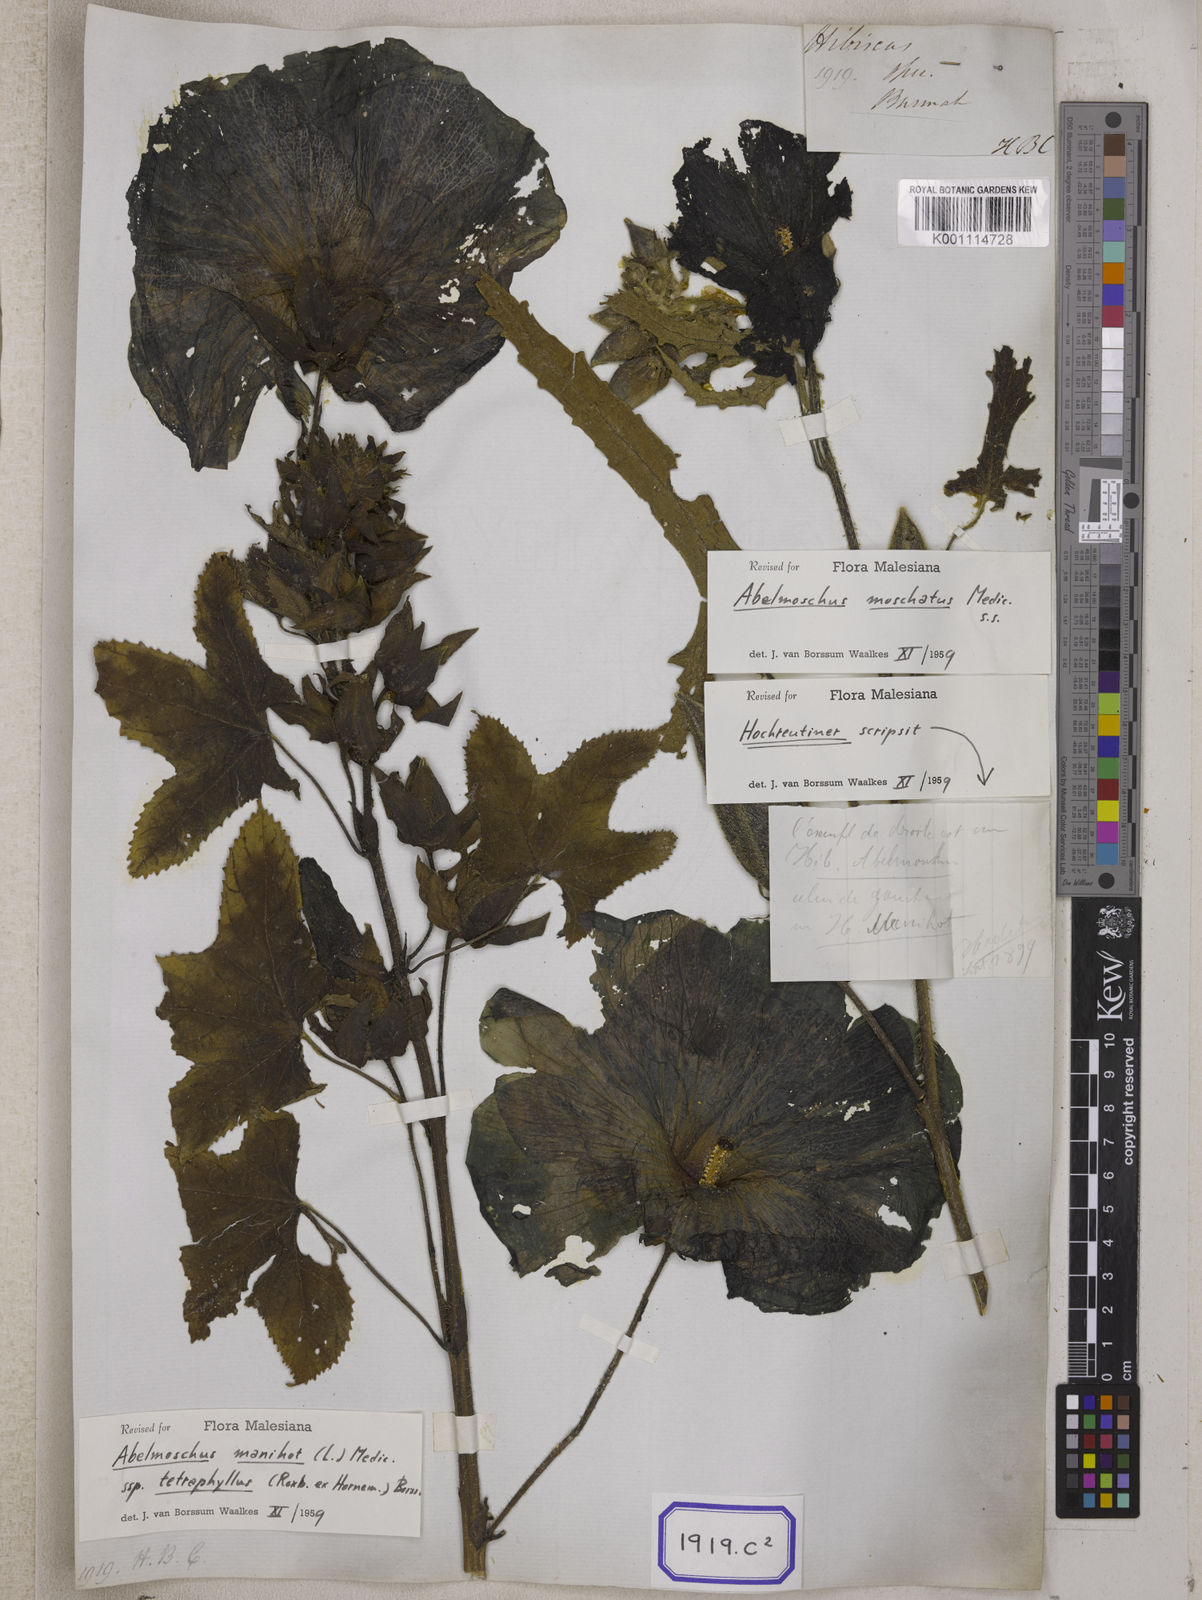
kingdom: Plantae
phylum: Tracheophyta
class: Magnoliopsida
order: Malvales
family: Malvaceae
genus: Bamia
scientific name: Bamia
